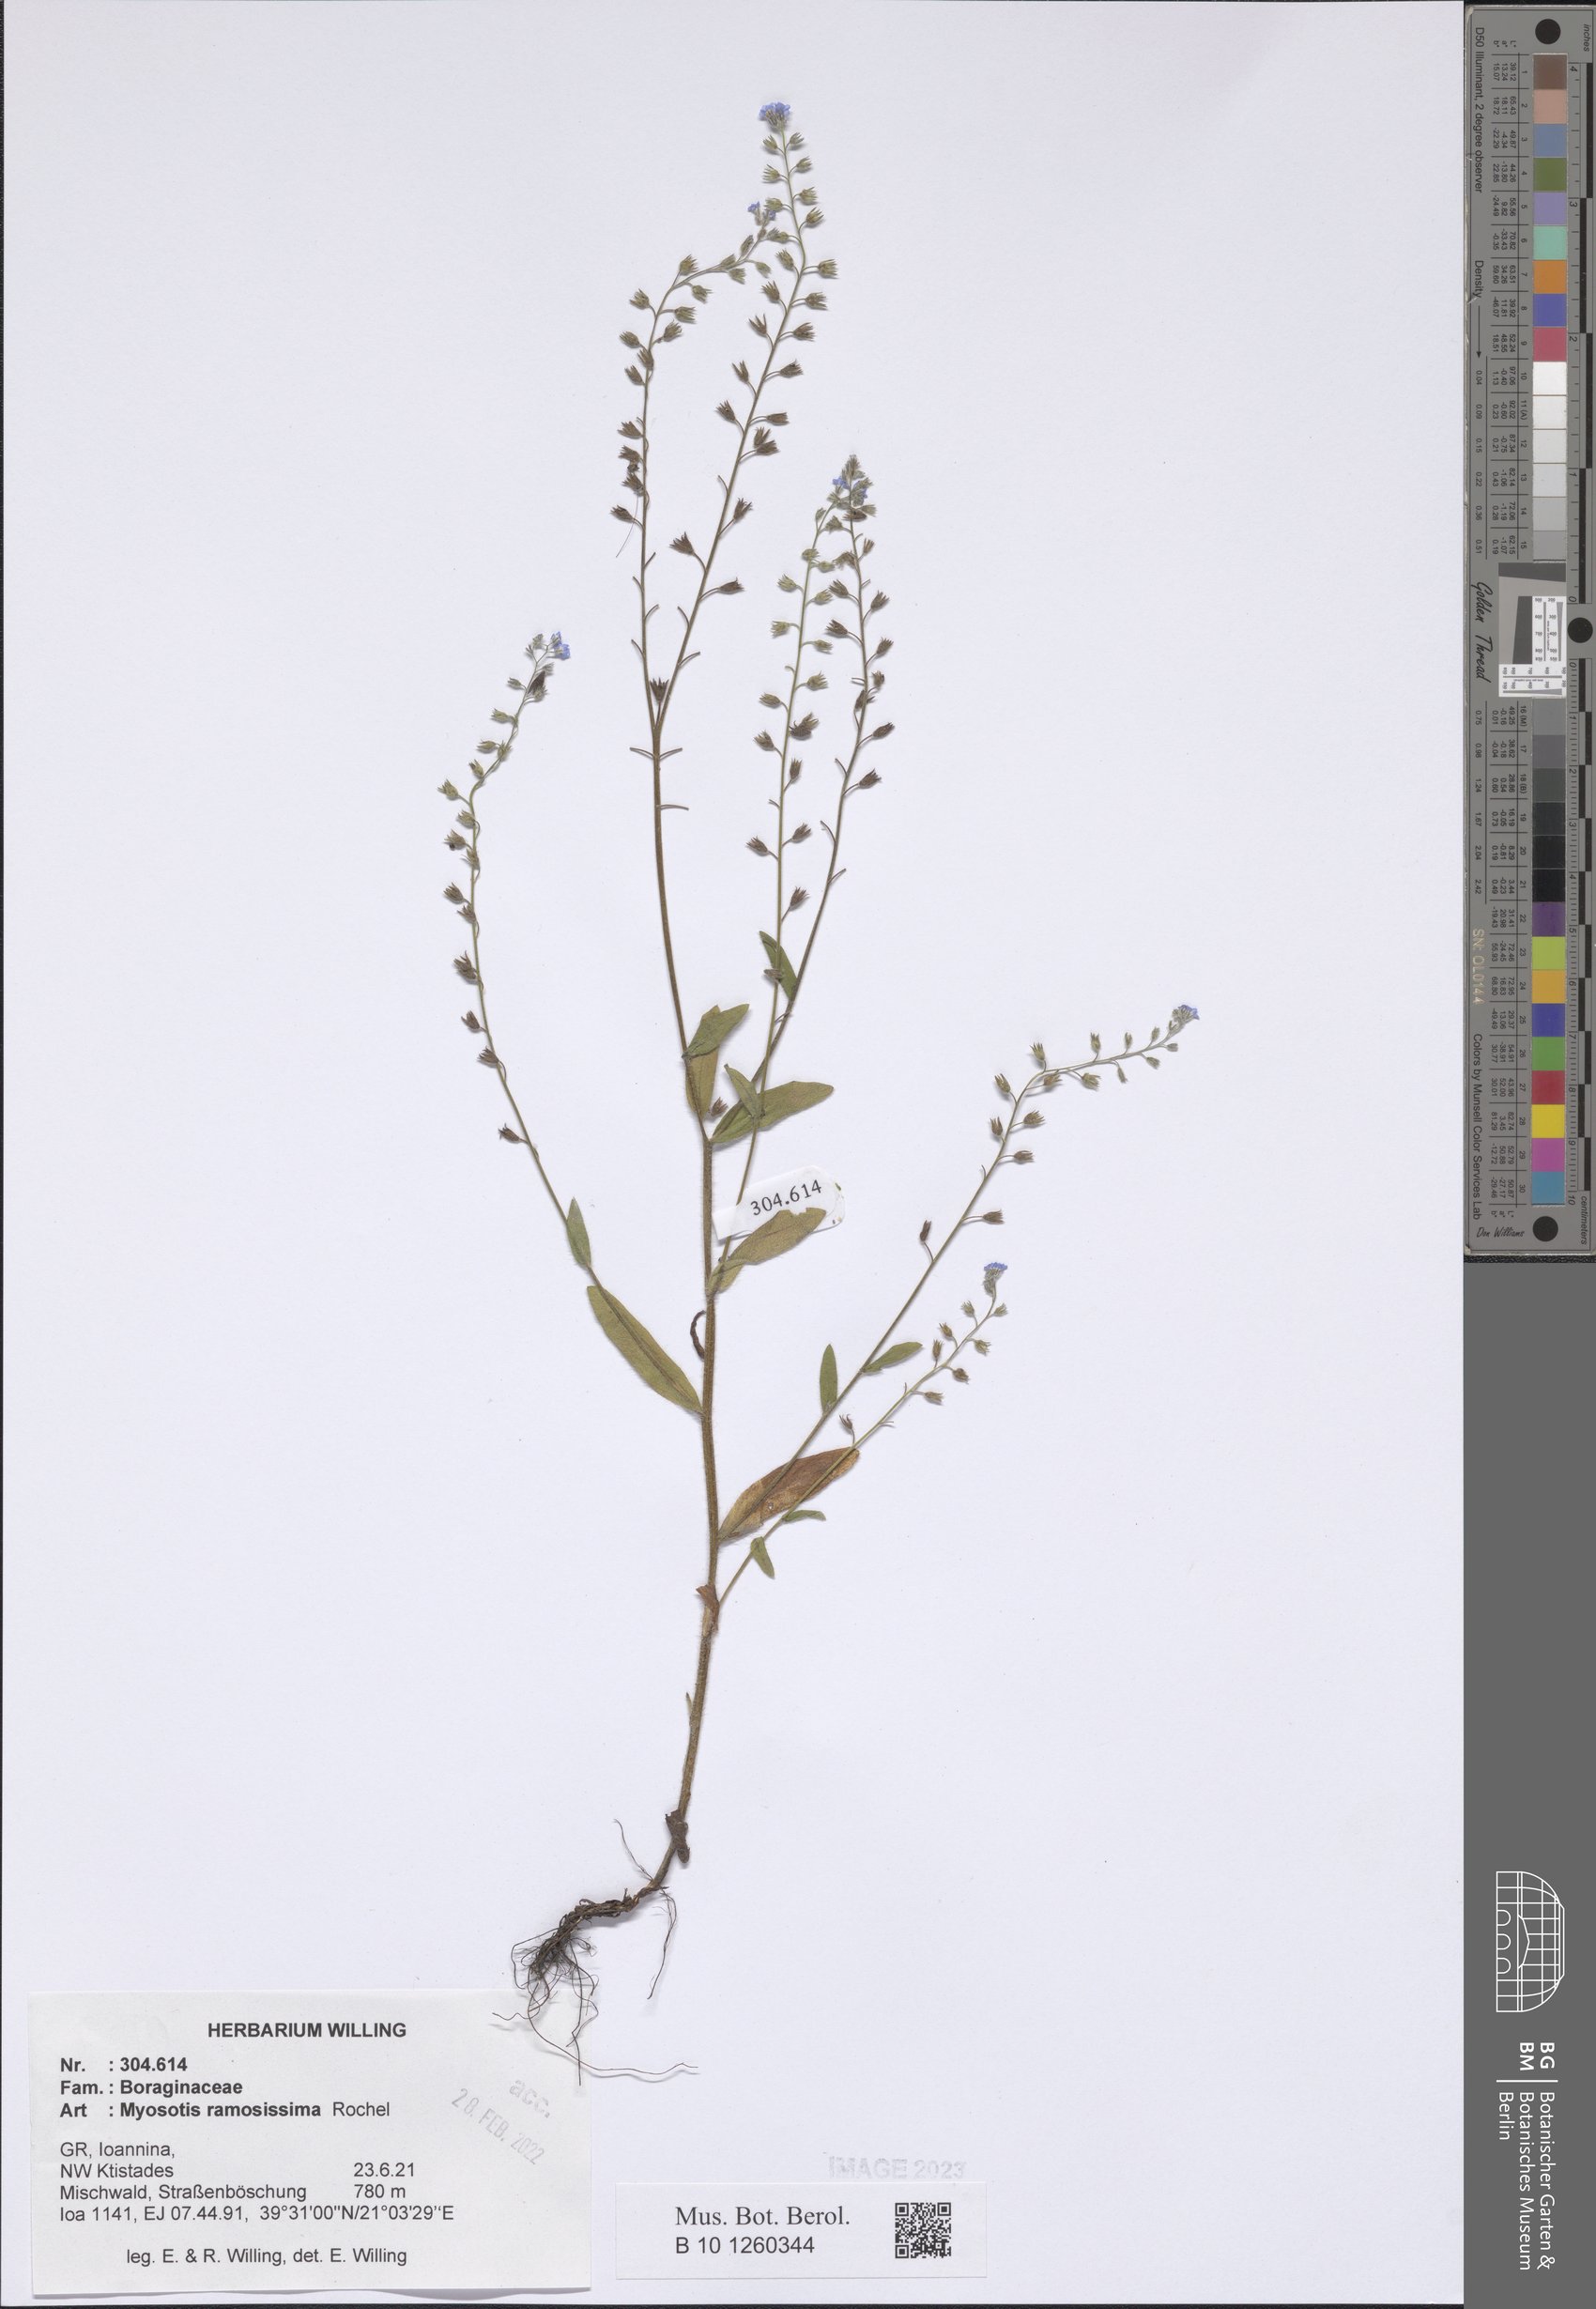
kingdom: Plantae
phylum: Tracheophyta
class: Magnoliopsida
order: Boraginales
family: Boraginaceae
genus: Myosotis
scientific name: Myosotis ramosissima
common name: Early forget-me-not
